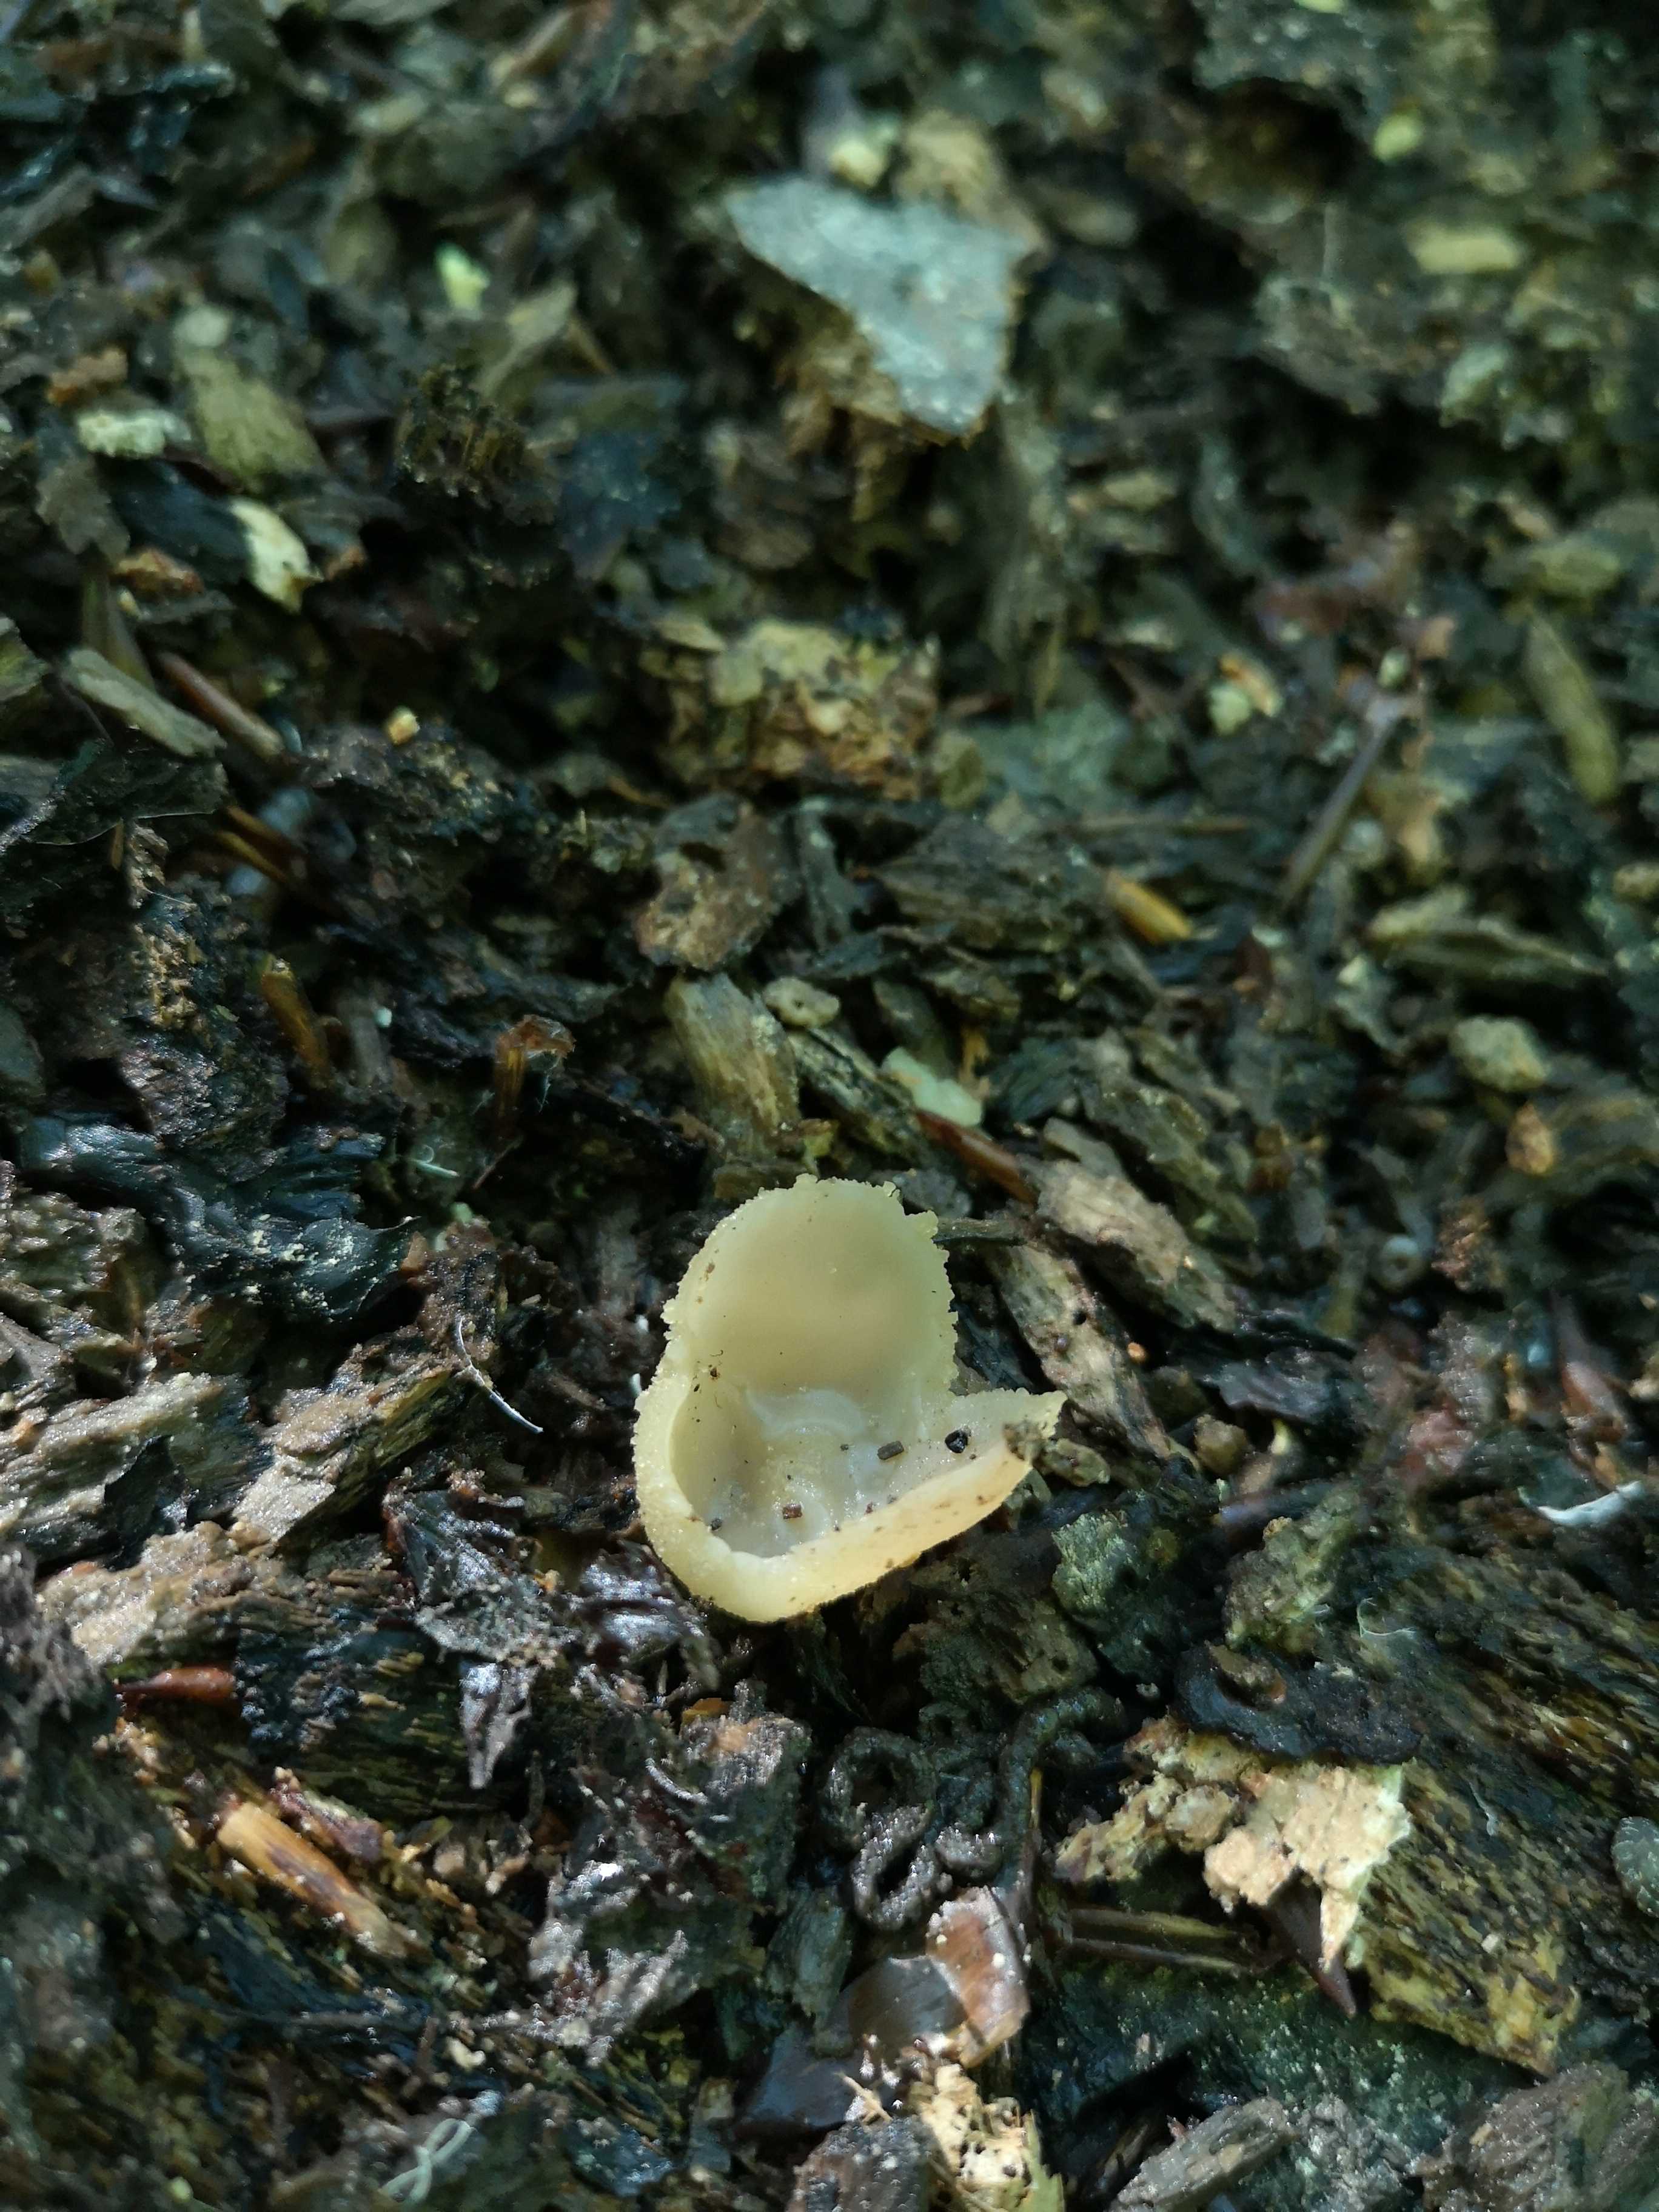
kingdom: Fungi
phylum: Ascomycota
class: Pezizomycetes
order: Pezizales
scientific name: Pezizales
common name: bægersvampordenen
